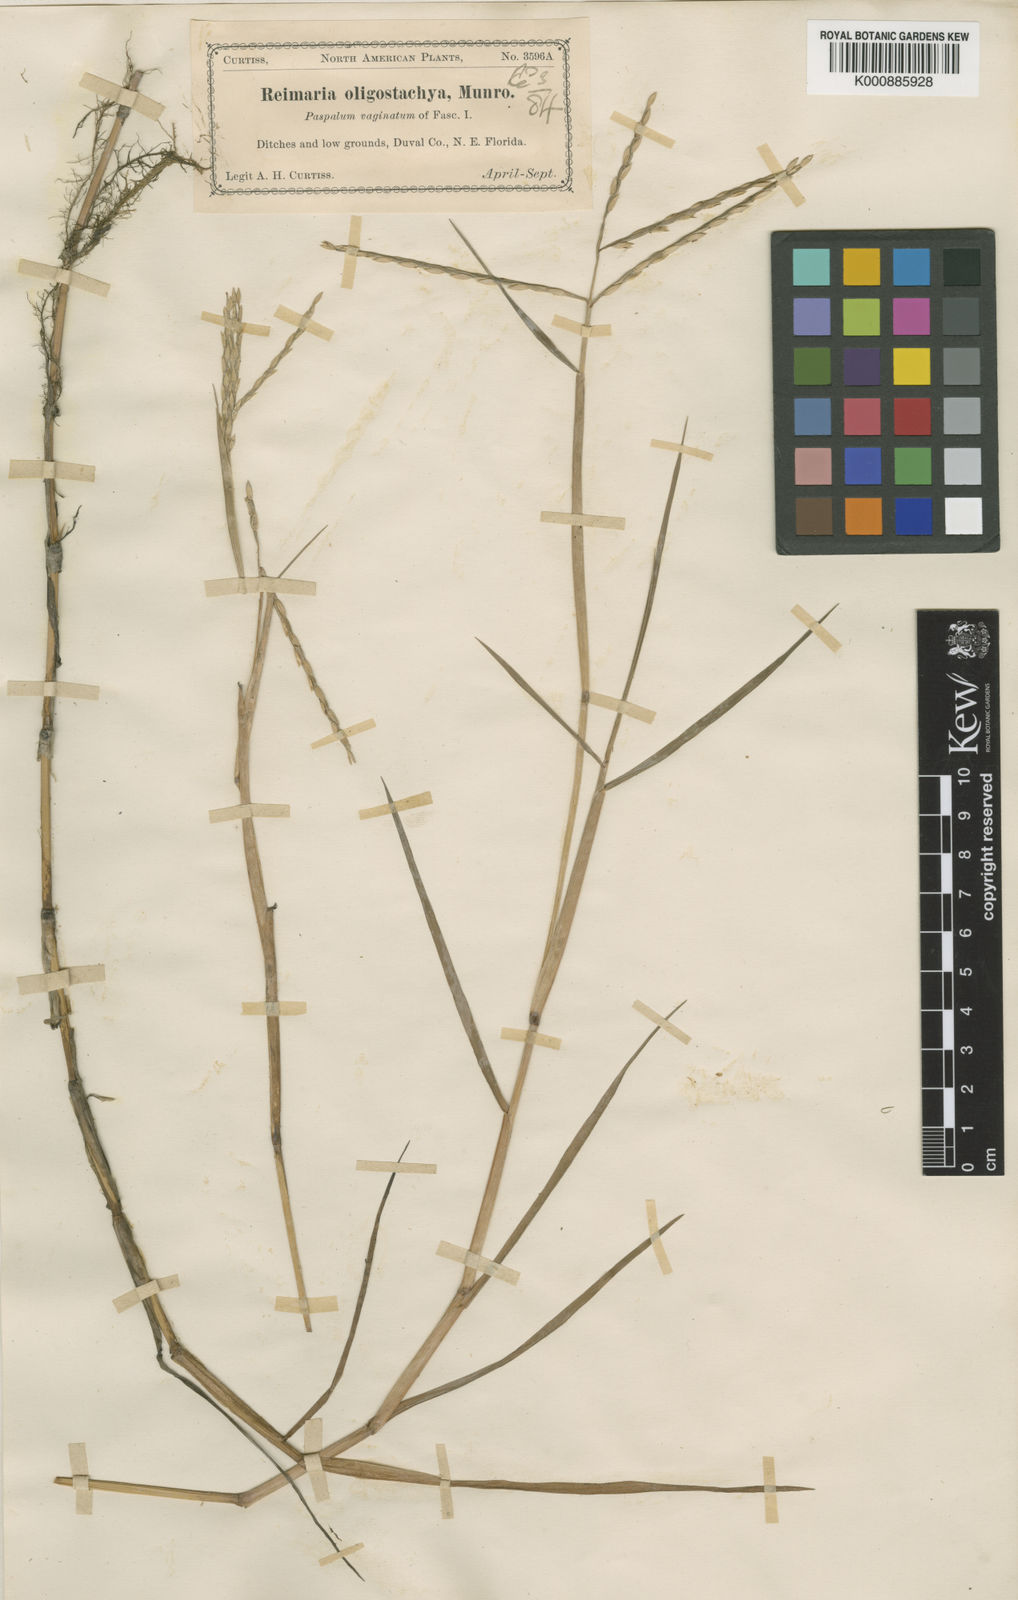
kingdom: Plantae
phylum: Tracheophyta
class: Liliopsida
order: Poales
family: Poaceae
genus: Paspalum
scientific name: Paspalum eglume
